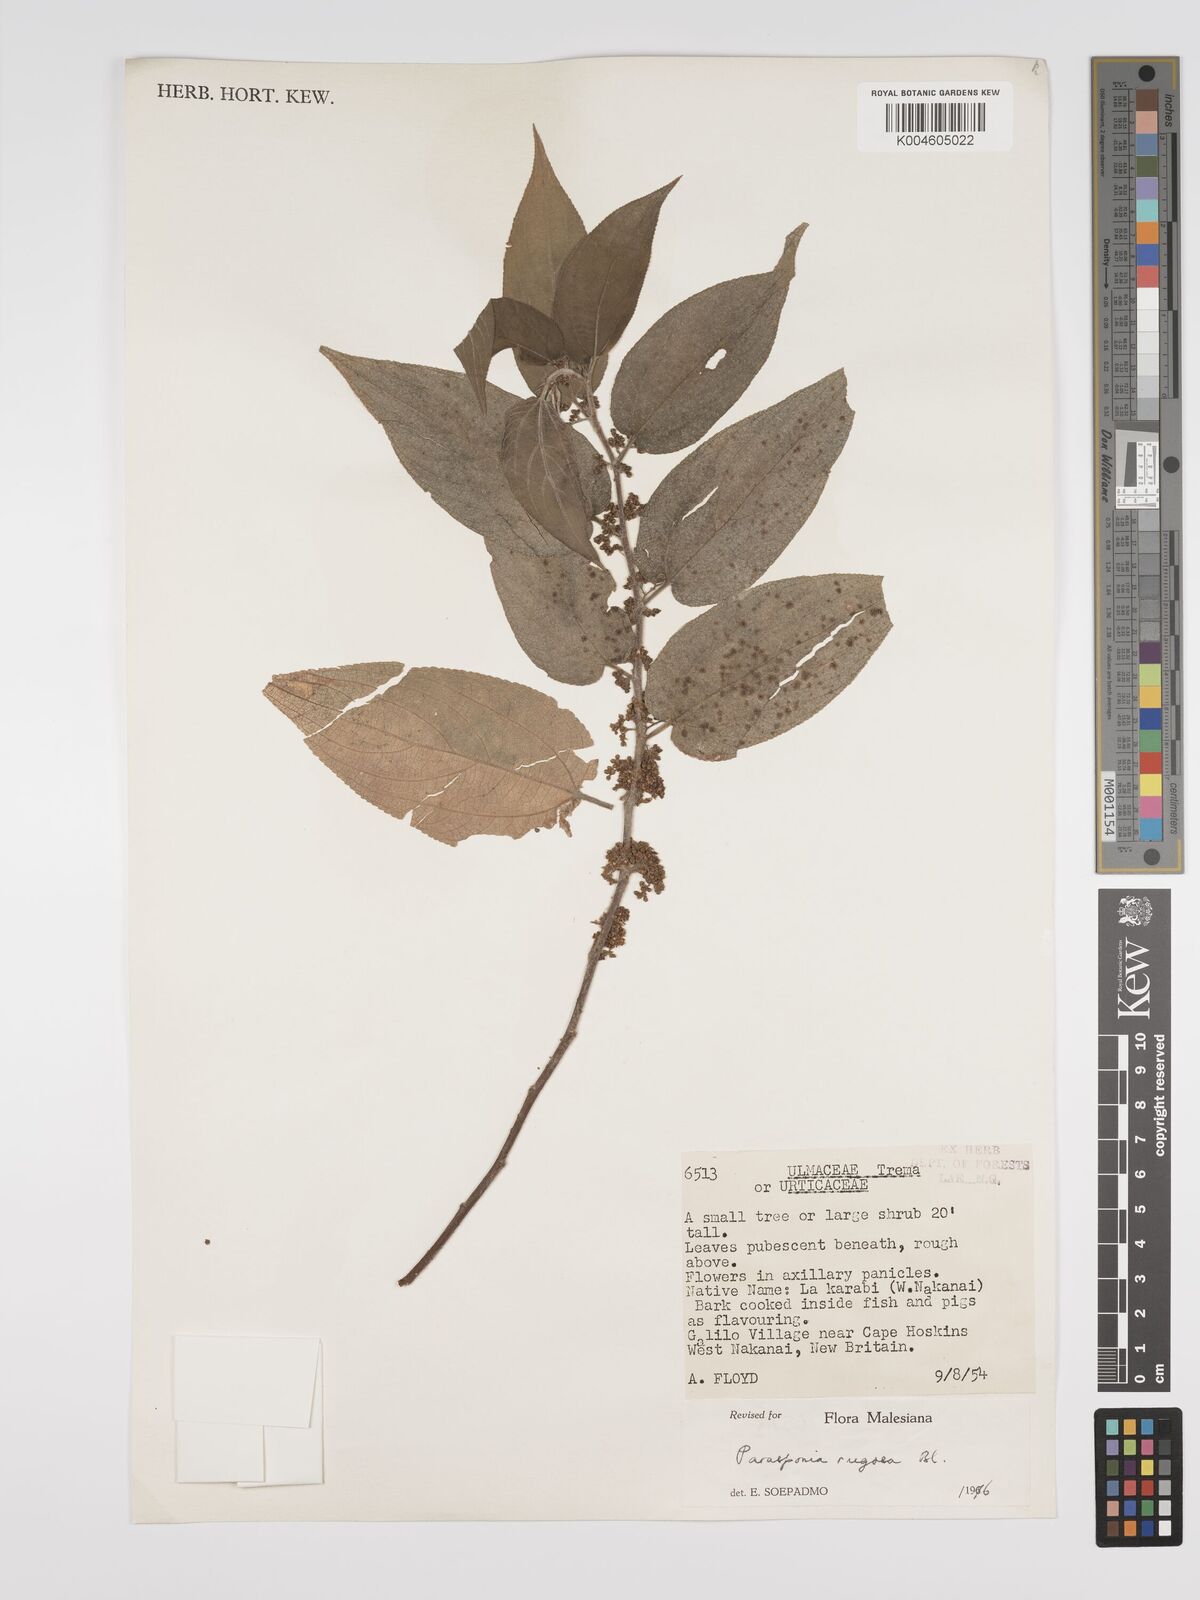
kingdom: Plantae
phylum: Tracheophyta
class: Magnoliopsida
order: Rosales
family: Cannabaceae
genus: Trema
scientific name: Trema eurhynchum
